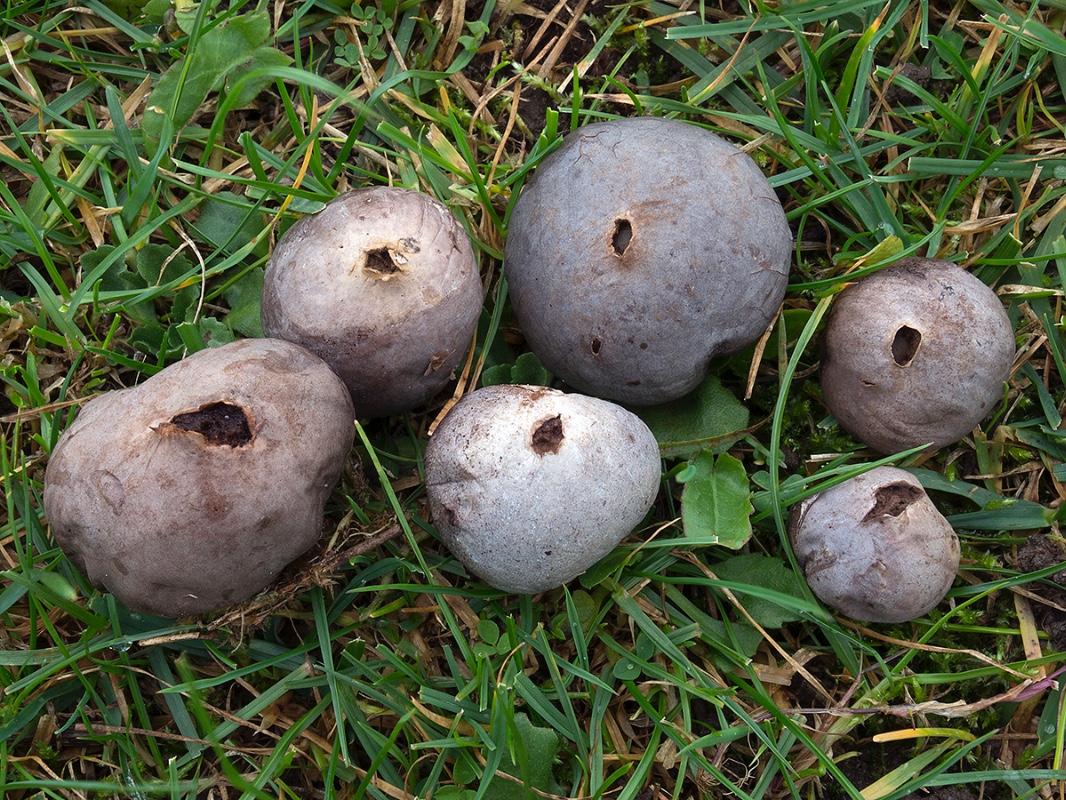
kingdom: Fungi
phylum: Basidiomycota
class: Agaricomycetes
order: Agaricales
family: Lycoperdaceae
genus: Bovista
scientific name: Bovista plumbea
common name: blygrå bovist
